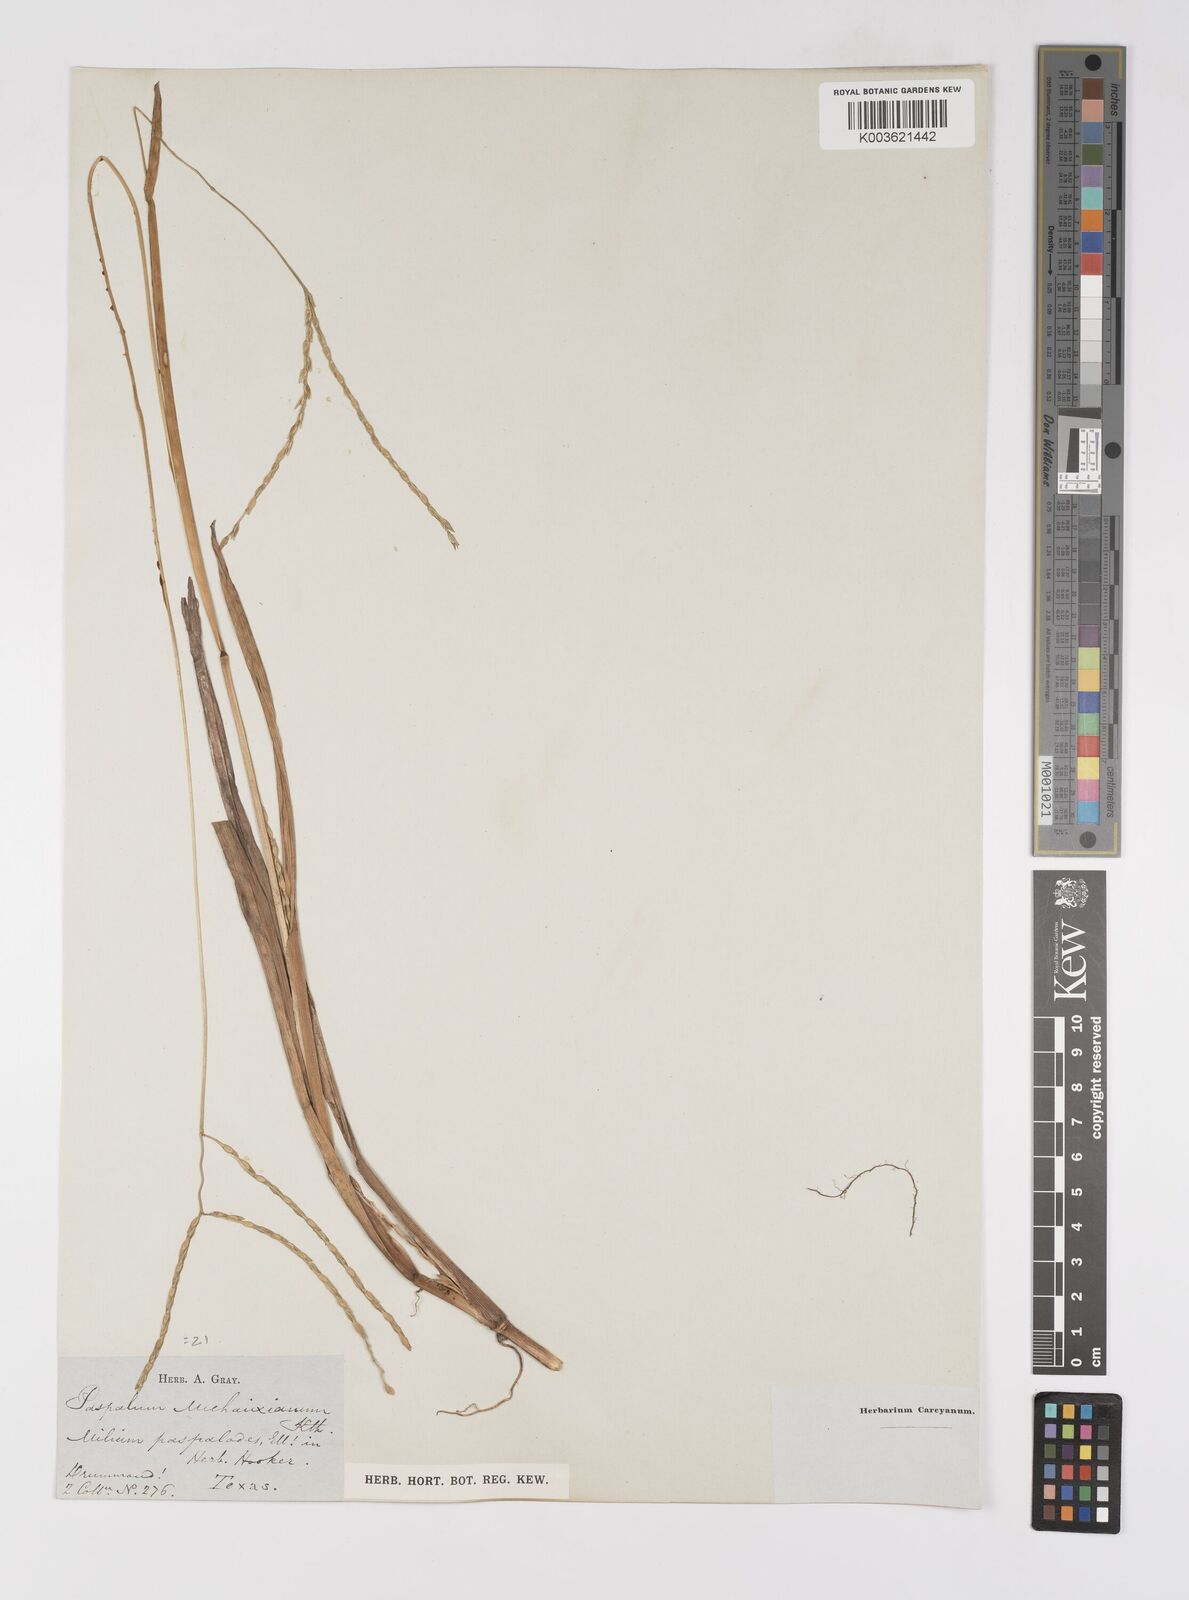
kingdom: Plantae
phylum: Tracheophyta
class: Liliopsida
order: Poales
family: Poaceae
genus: Paspalum
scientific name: Paspalum
